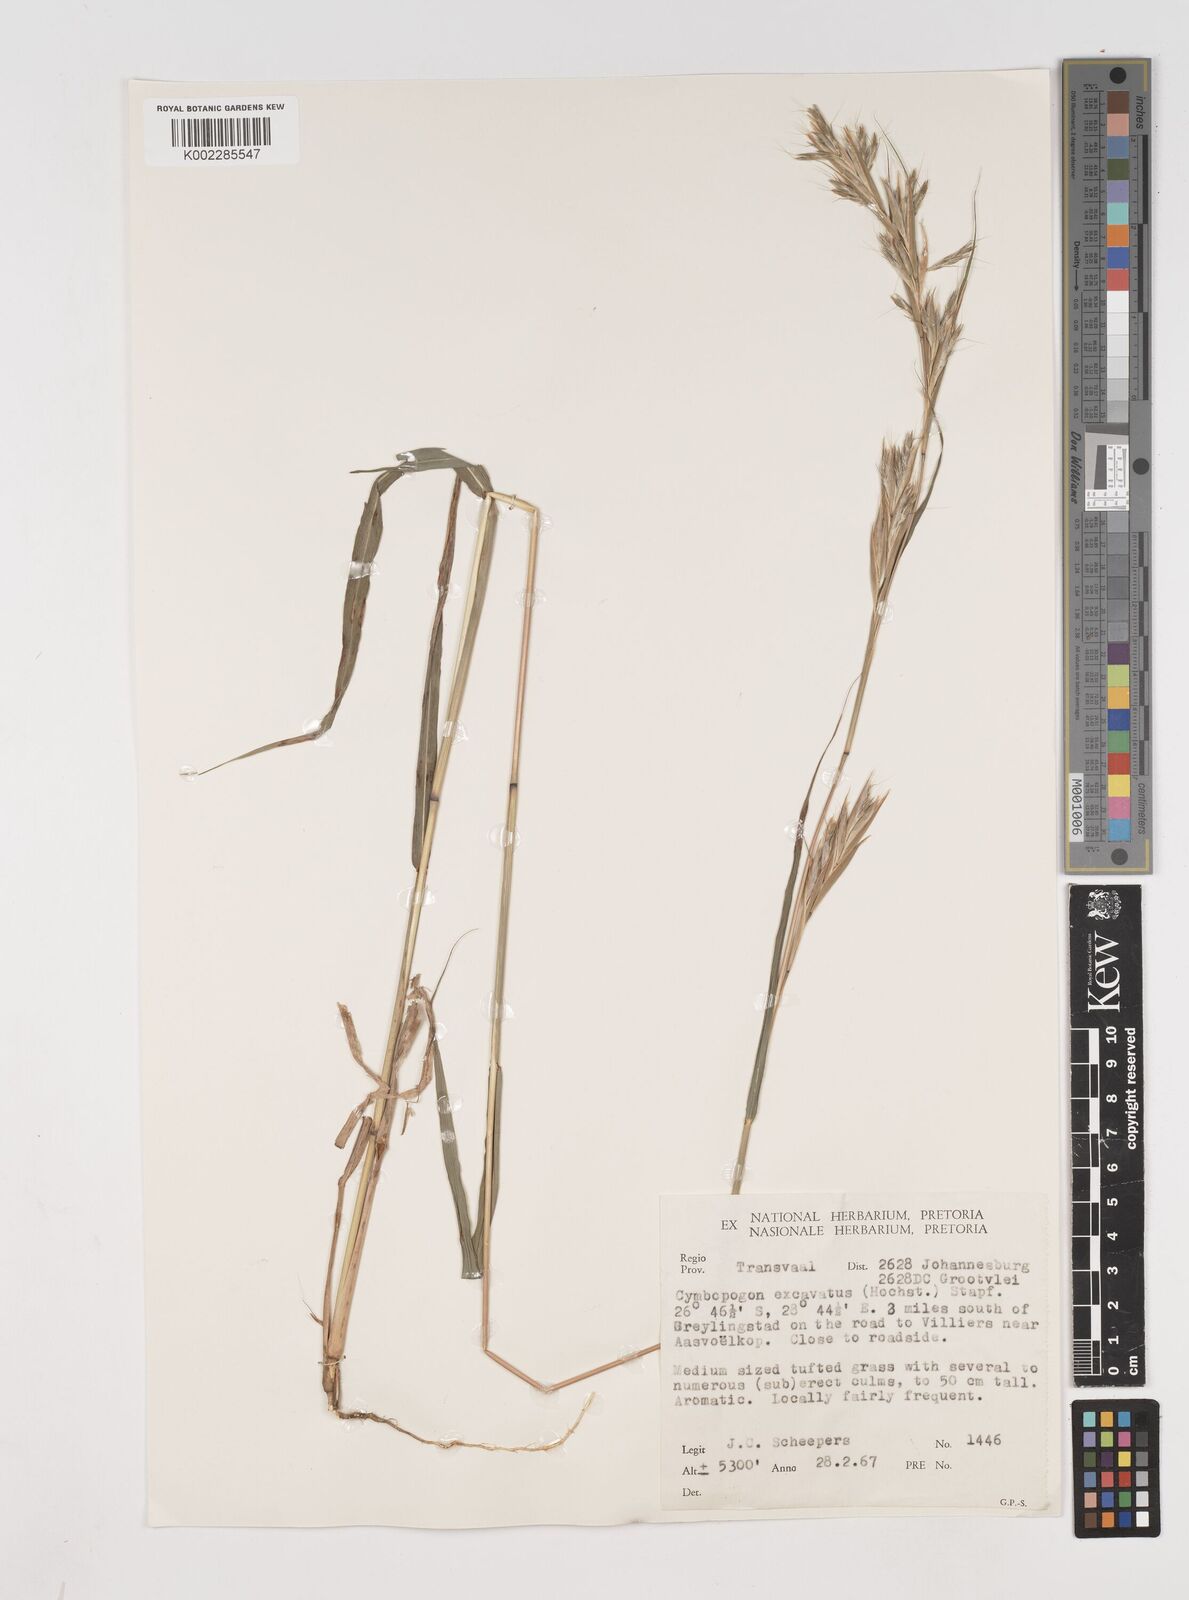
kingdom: Plantae
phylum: Tracheophyta
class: Liliopsida
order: Poales
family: Poaceae
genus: Cymbopogon
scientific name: Cymbopogon caesius
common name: Kachi grass
